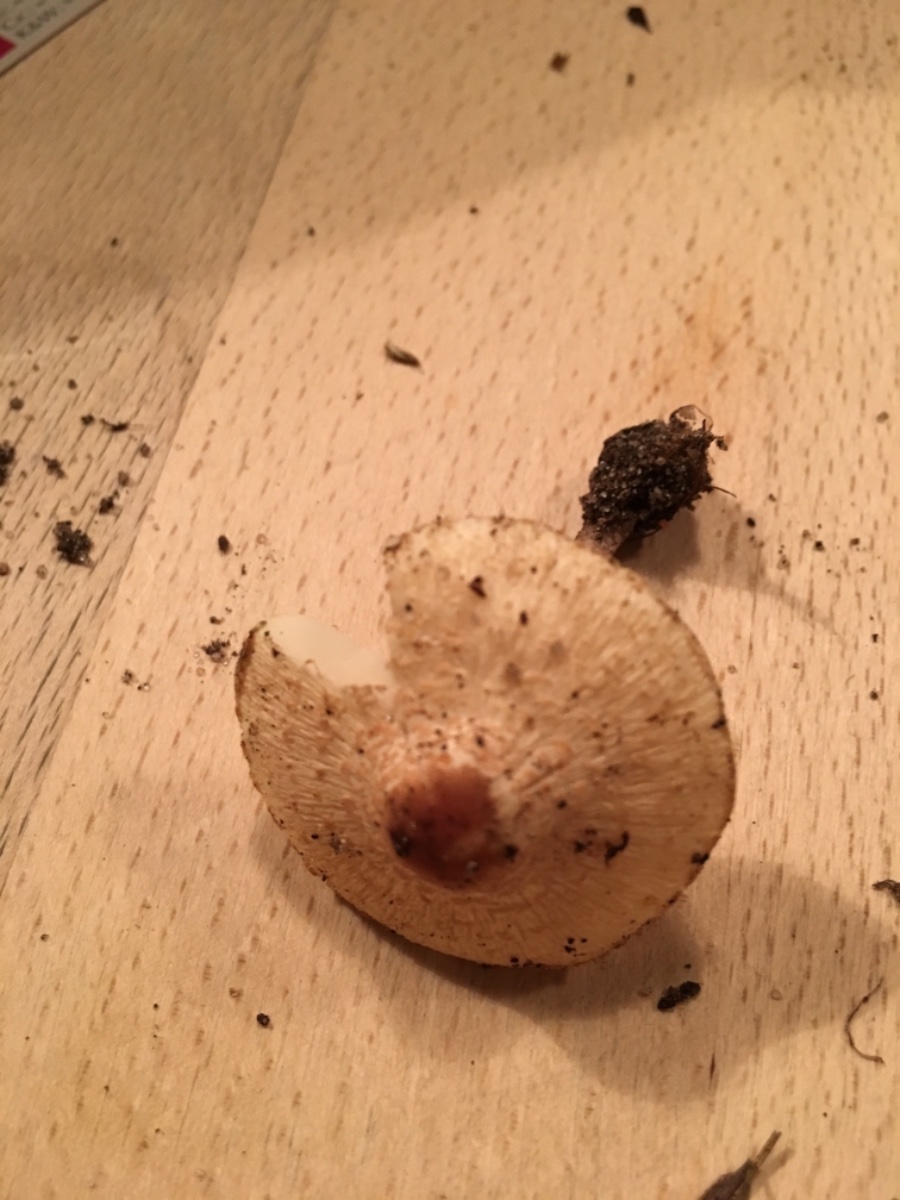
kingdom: Fungi
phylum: Basidiomycota
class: Agaricomycetes
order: Agaricales
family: Agaricaceae
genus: Lepiota
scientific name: Lepiota cristata
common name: stinkende parasolhat
